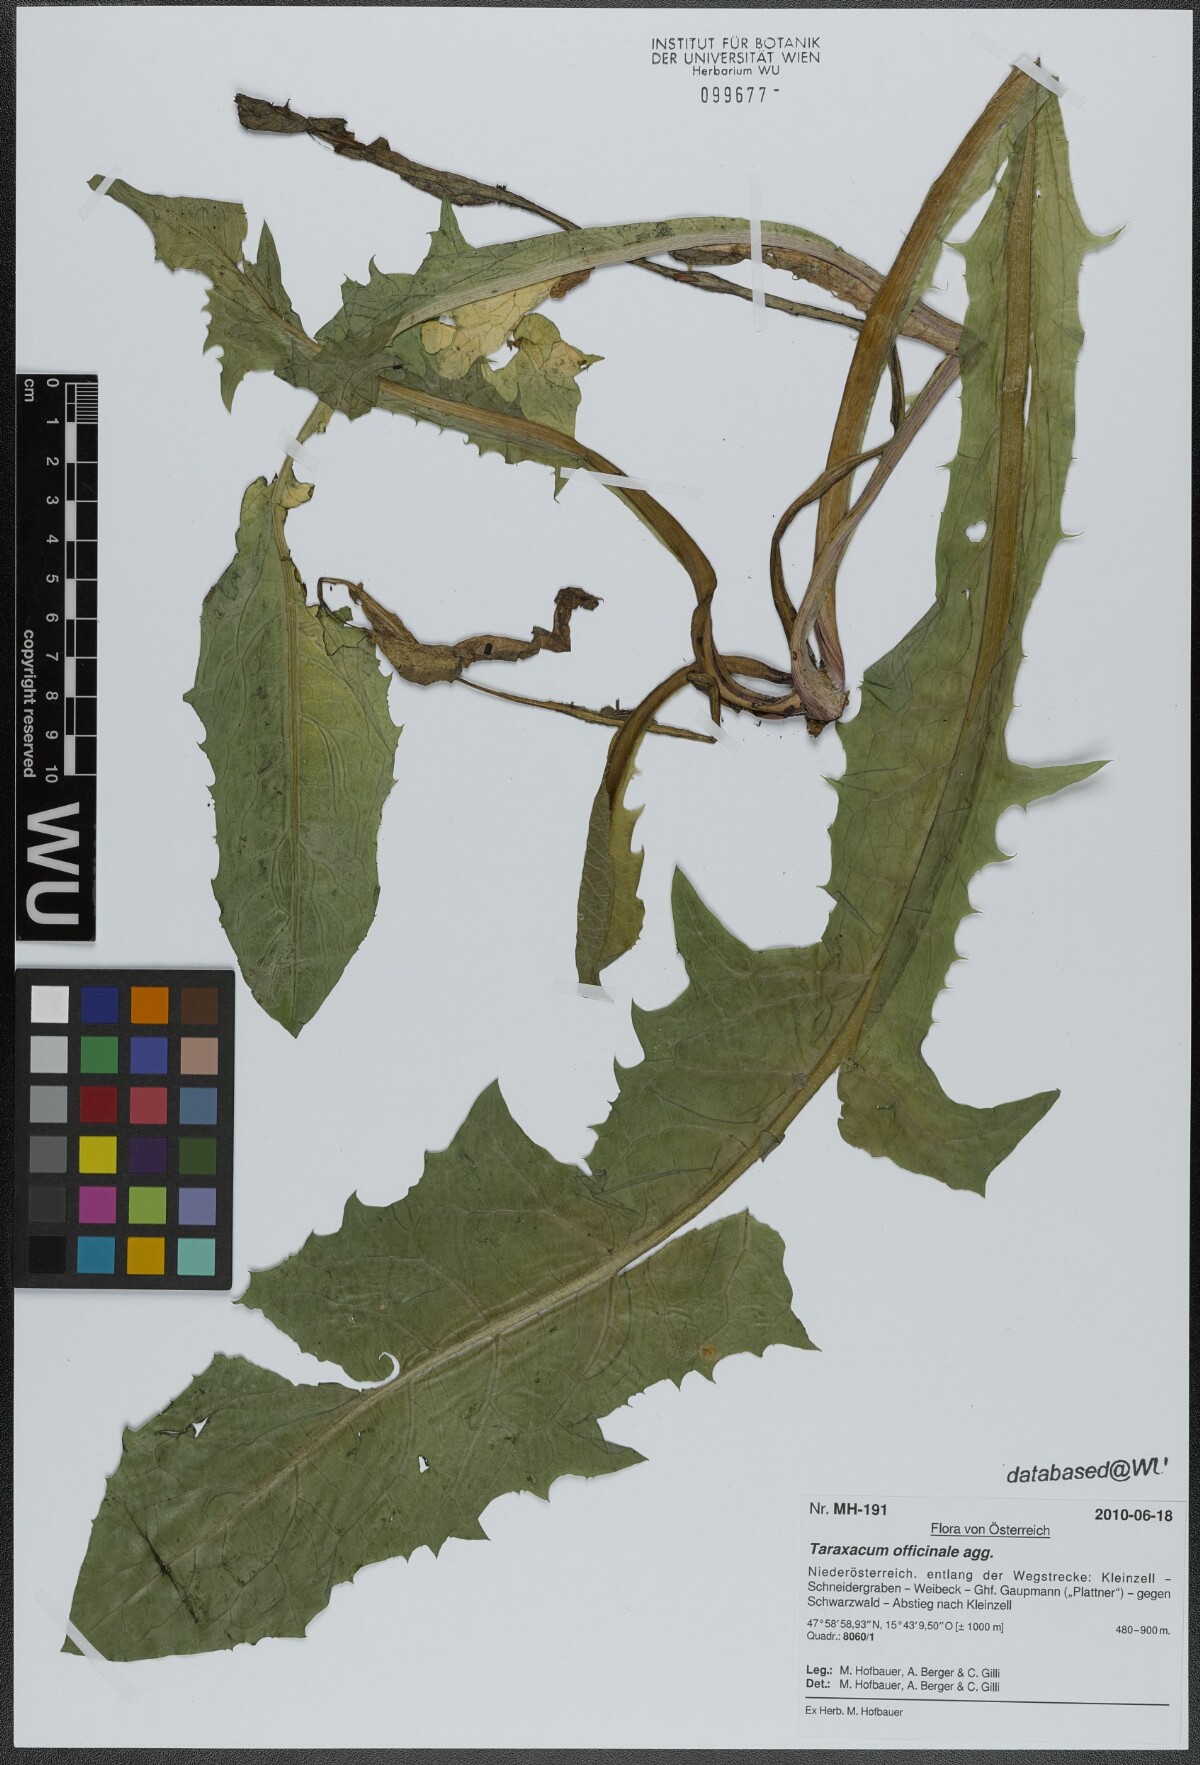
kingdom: Plantae
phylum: Tracheophyta
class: Magnoliopsida
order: Asterales
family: Asteraceae
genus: Taraxacum
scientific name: Taraxacum officinale
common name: Common dandelion
